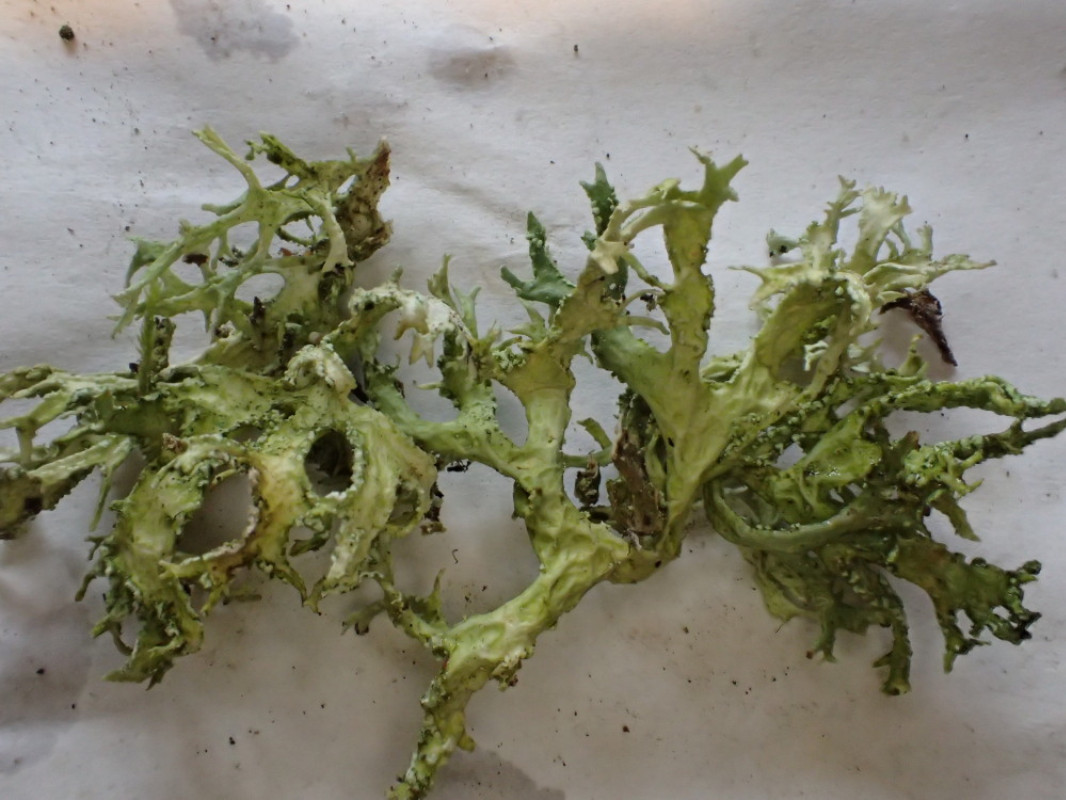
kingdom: Fungi
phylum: Ascomycota
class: Lecanoromycetes
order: Lecanorales
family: Parmeliaceae
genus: Evernia
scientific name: Evernia prunastri
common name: almindelig slåenlav
